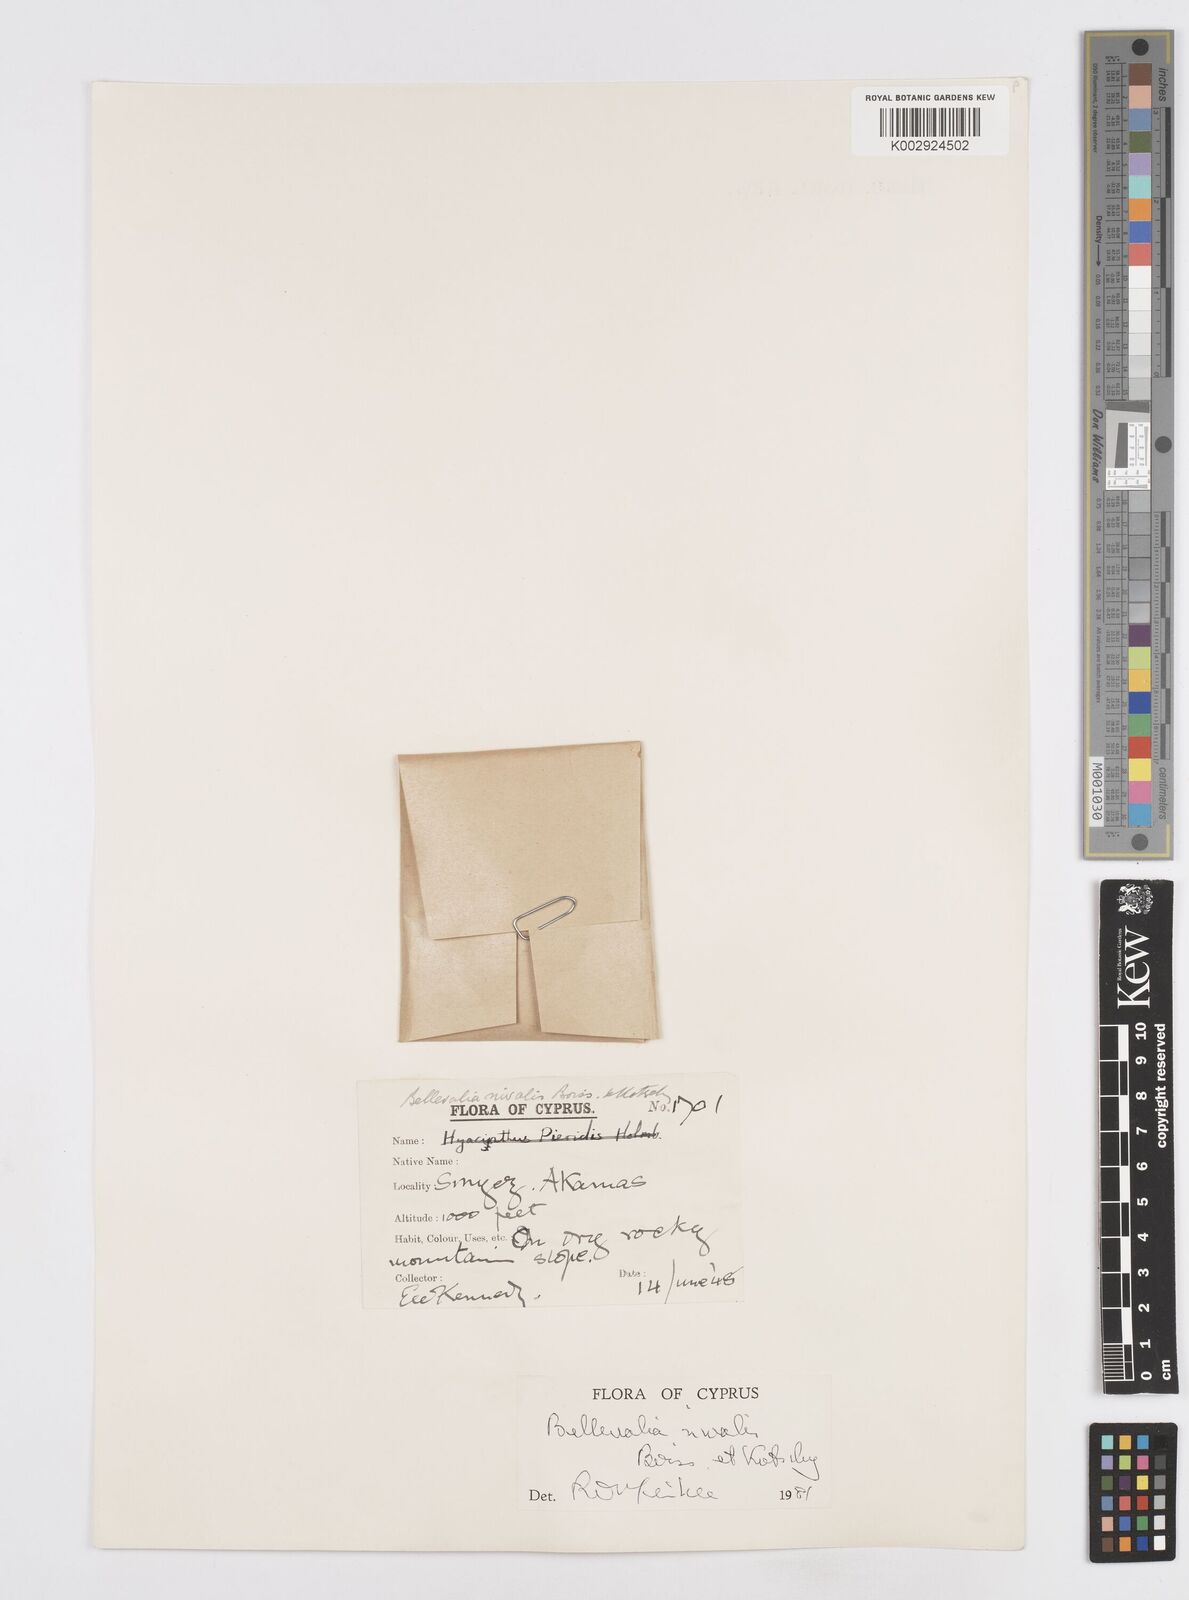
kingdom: Plantae
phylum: Tracheophyta
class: Liliopsida
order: Asparagales
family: Asparagaceae
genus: Bellevalia
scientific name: Bellevalia nivalis
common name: Snow bellevalia
